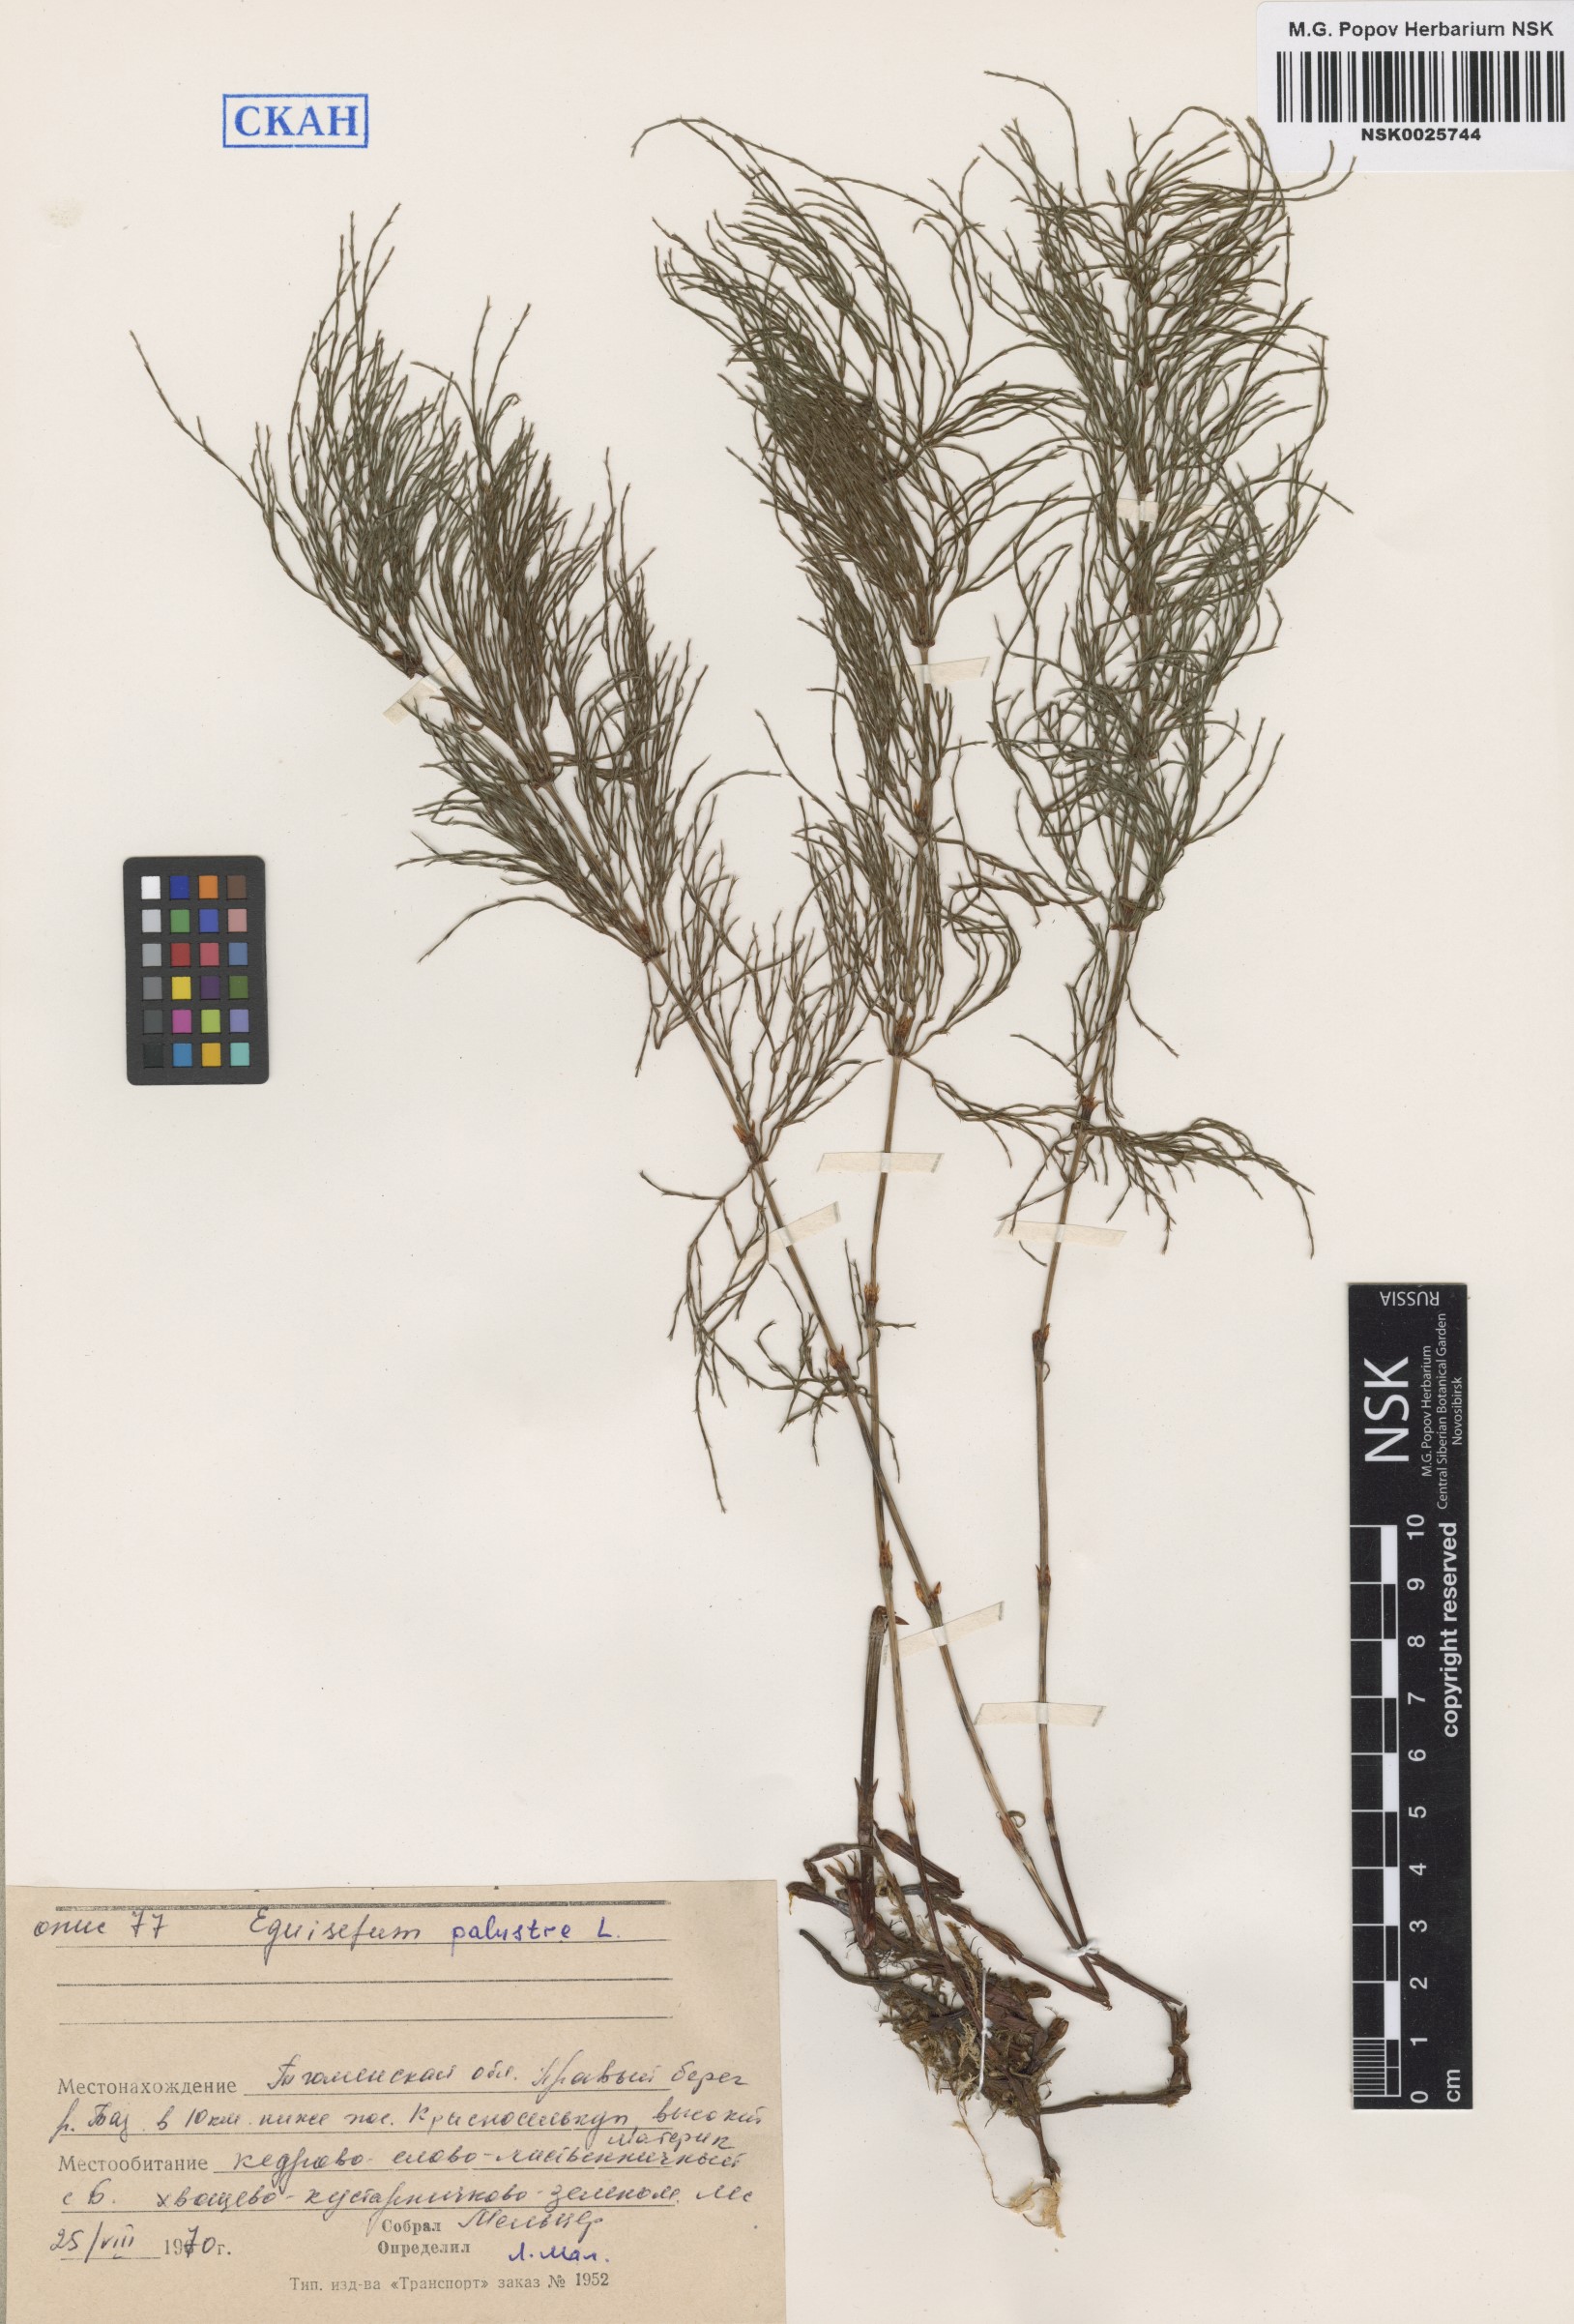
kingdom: Plantae
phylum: Tracheophyta
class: Polypodiopsida
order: Equisetales
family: Equisetaceae
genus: Equisetum
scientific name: Equisetum palustre
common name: Marsh horsetail
